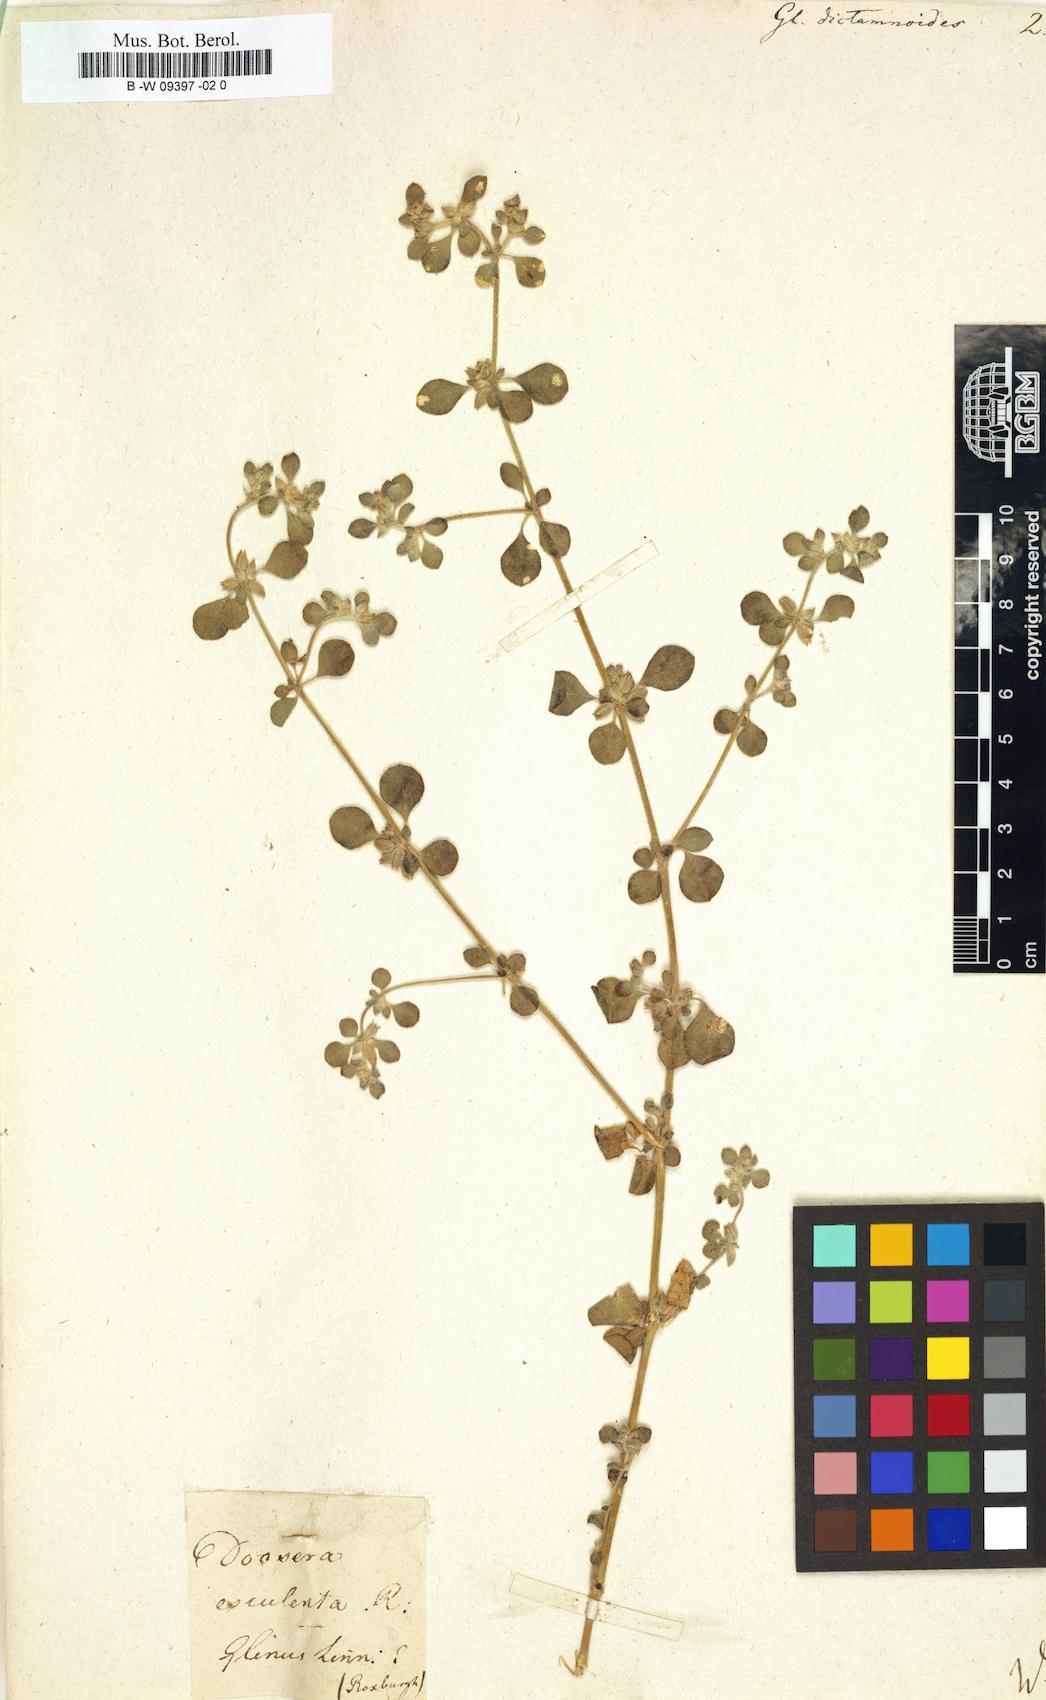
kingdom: Plantae
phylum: Tracheophyta
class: Magnoliopsida
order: Caryophyllales
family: Molluginaceae
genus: Glinus
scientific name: Glinus lotoides
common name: Lotus sweetjuice
